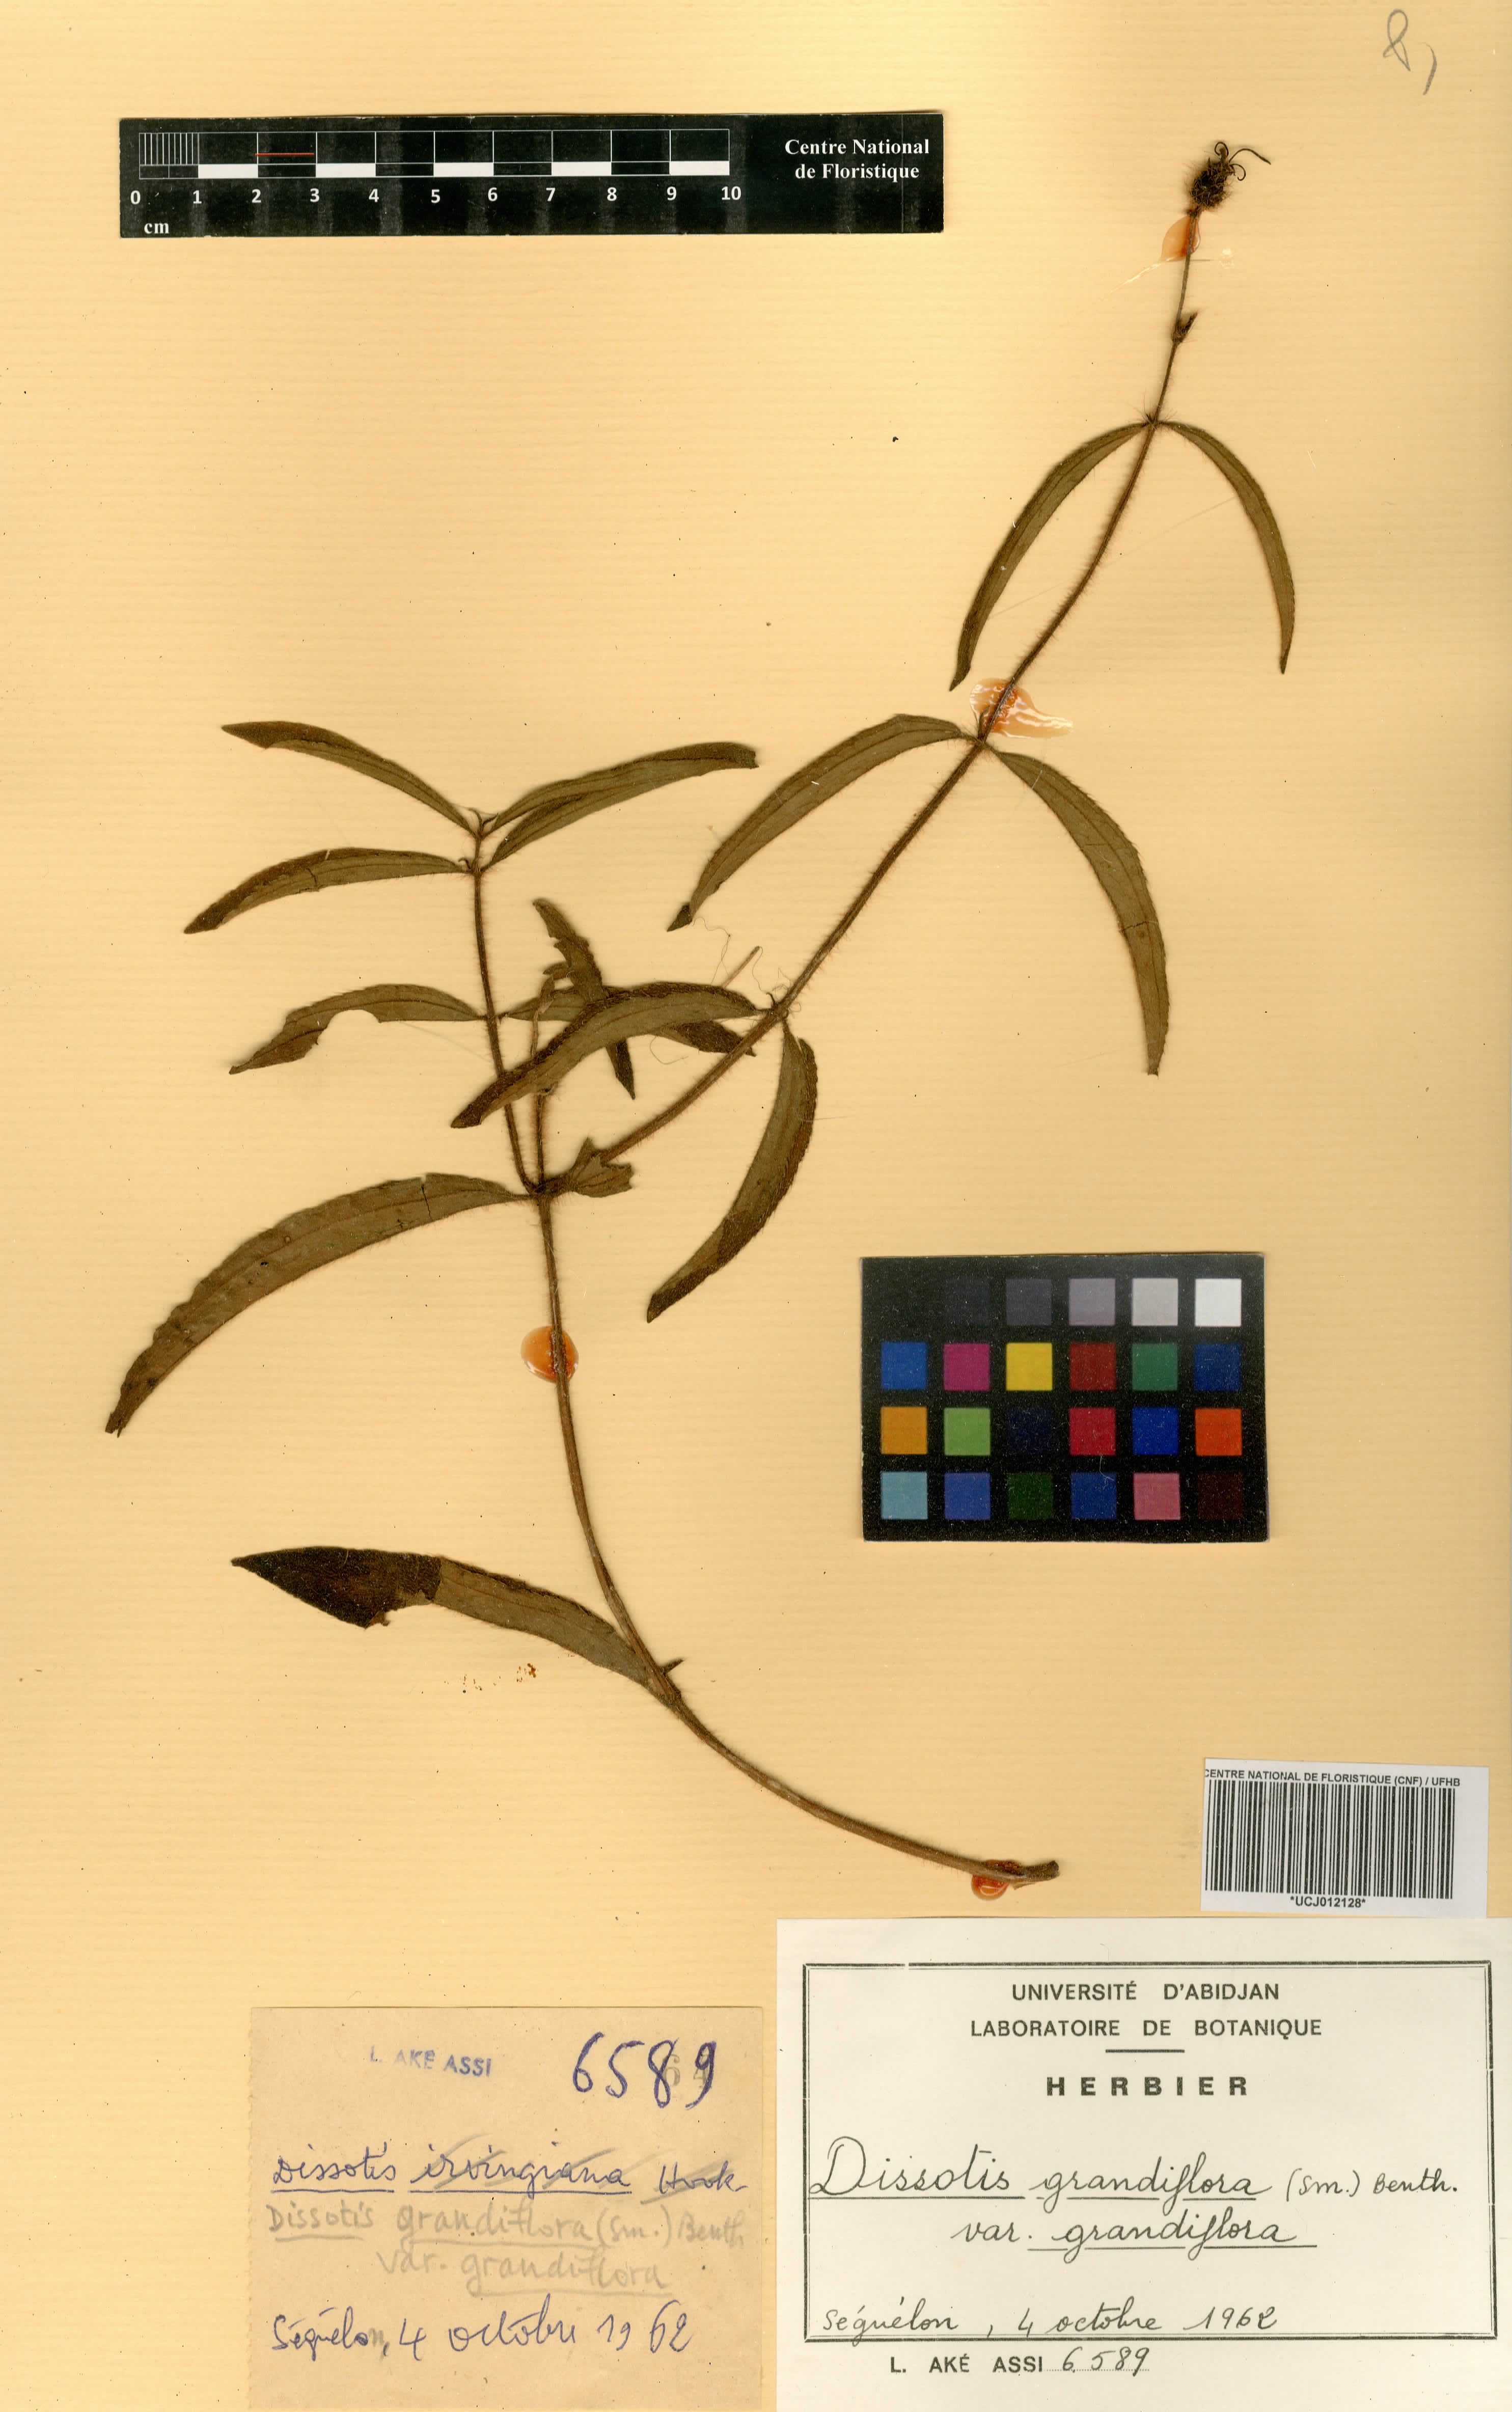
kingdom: Plantae
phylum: Tracheophyta
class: Magnoliopsida
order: Myrtales
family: Melastomataceae
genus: Dissotis
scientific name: Dissotis grandiflora
